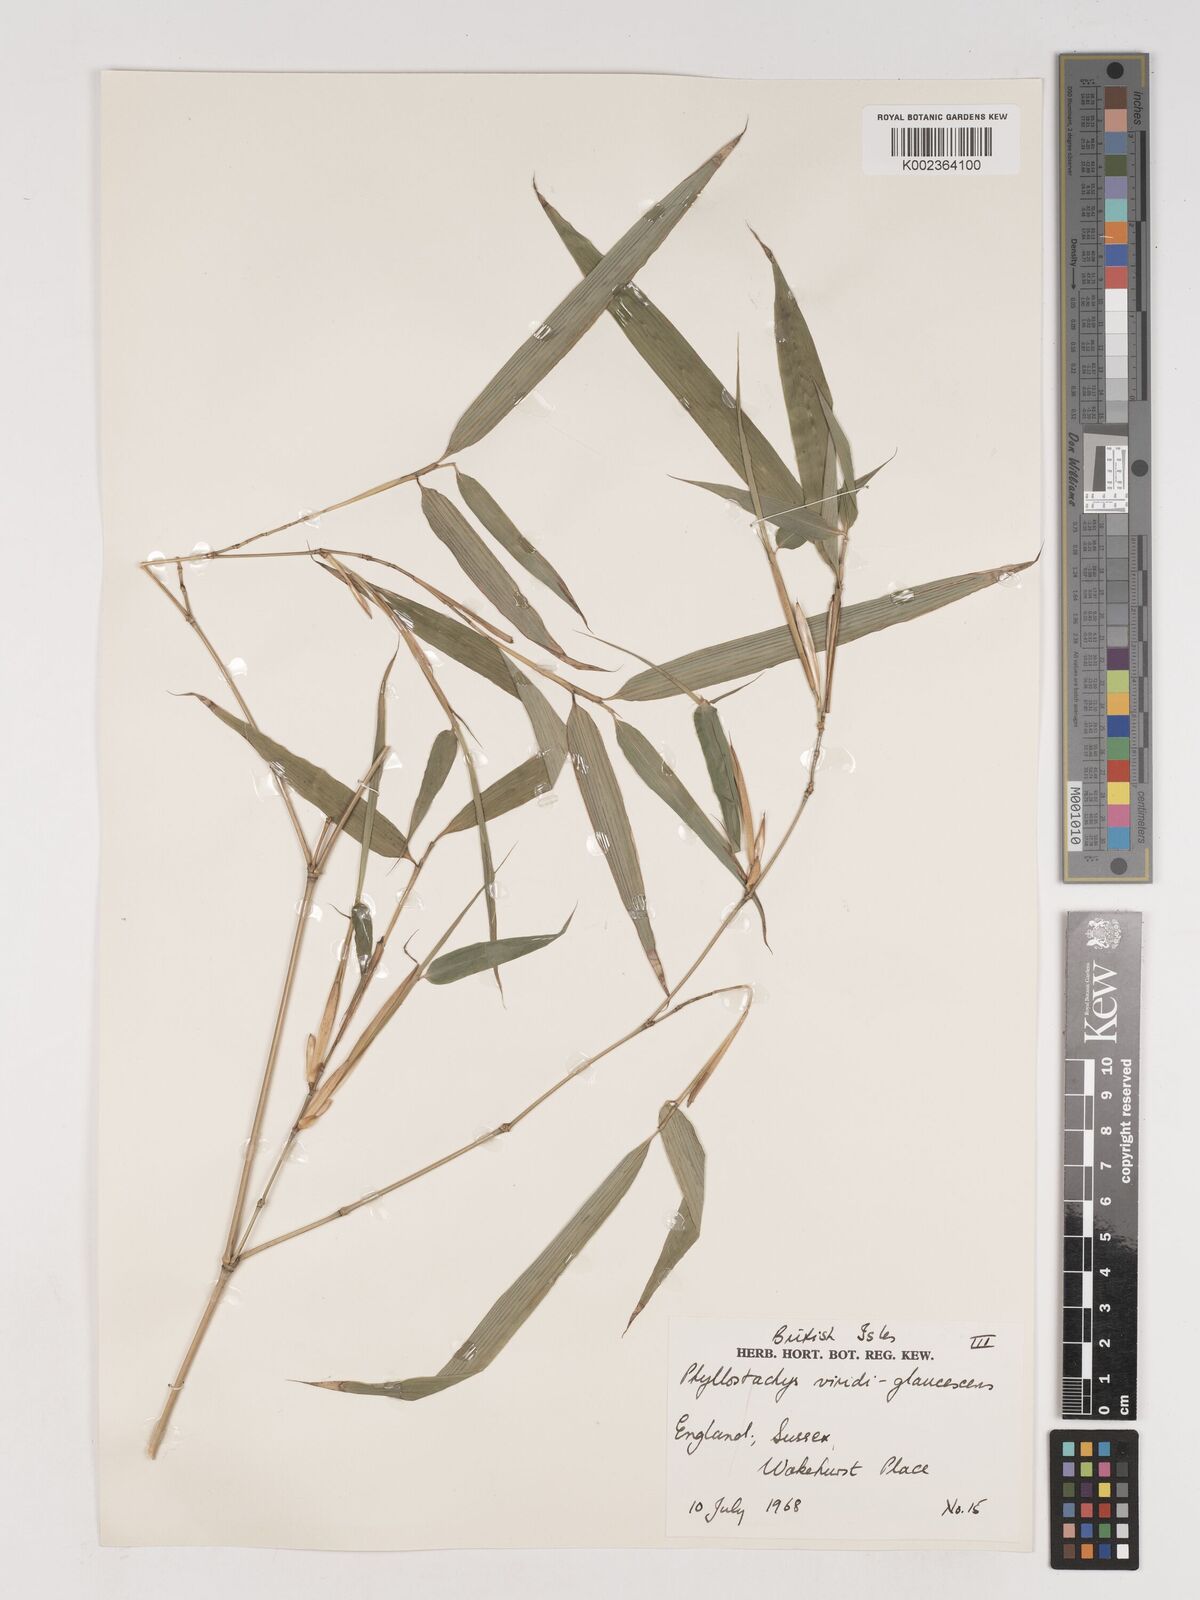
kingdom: Plantae
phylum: Tracheophyta
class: Liliopsida
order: Poales
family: Poaceae
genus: Phyllostachys
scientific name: Phyllostachys viridiglaucescens
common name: Greenwax golden bamboo
